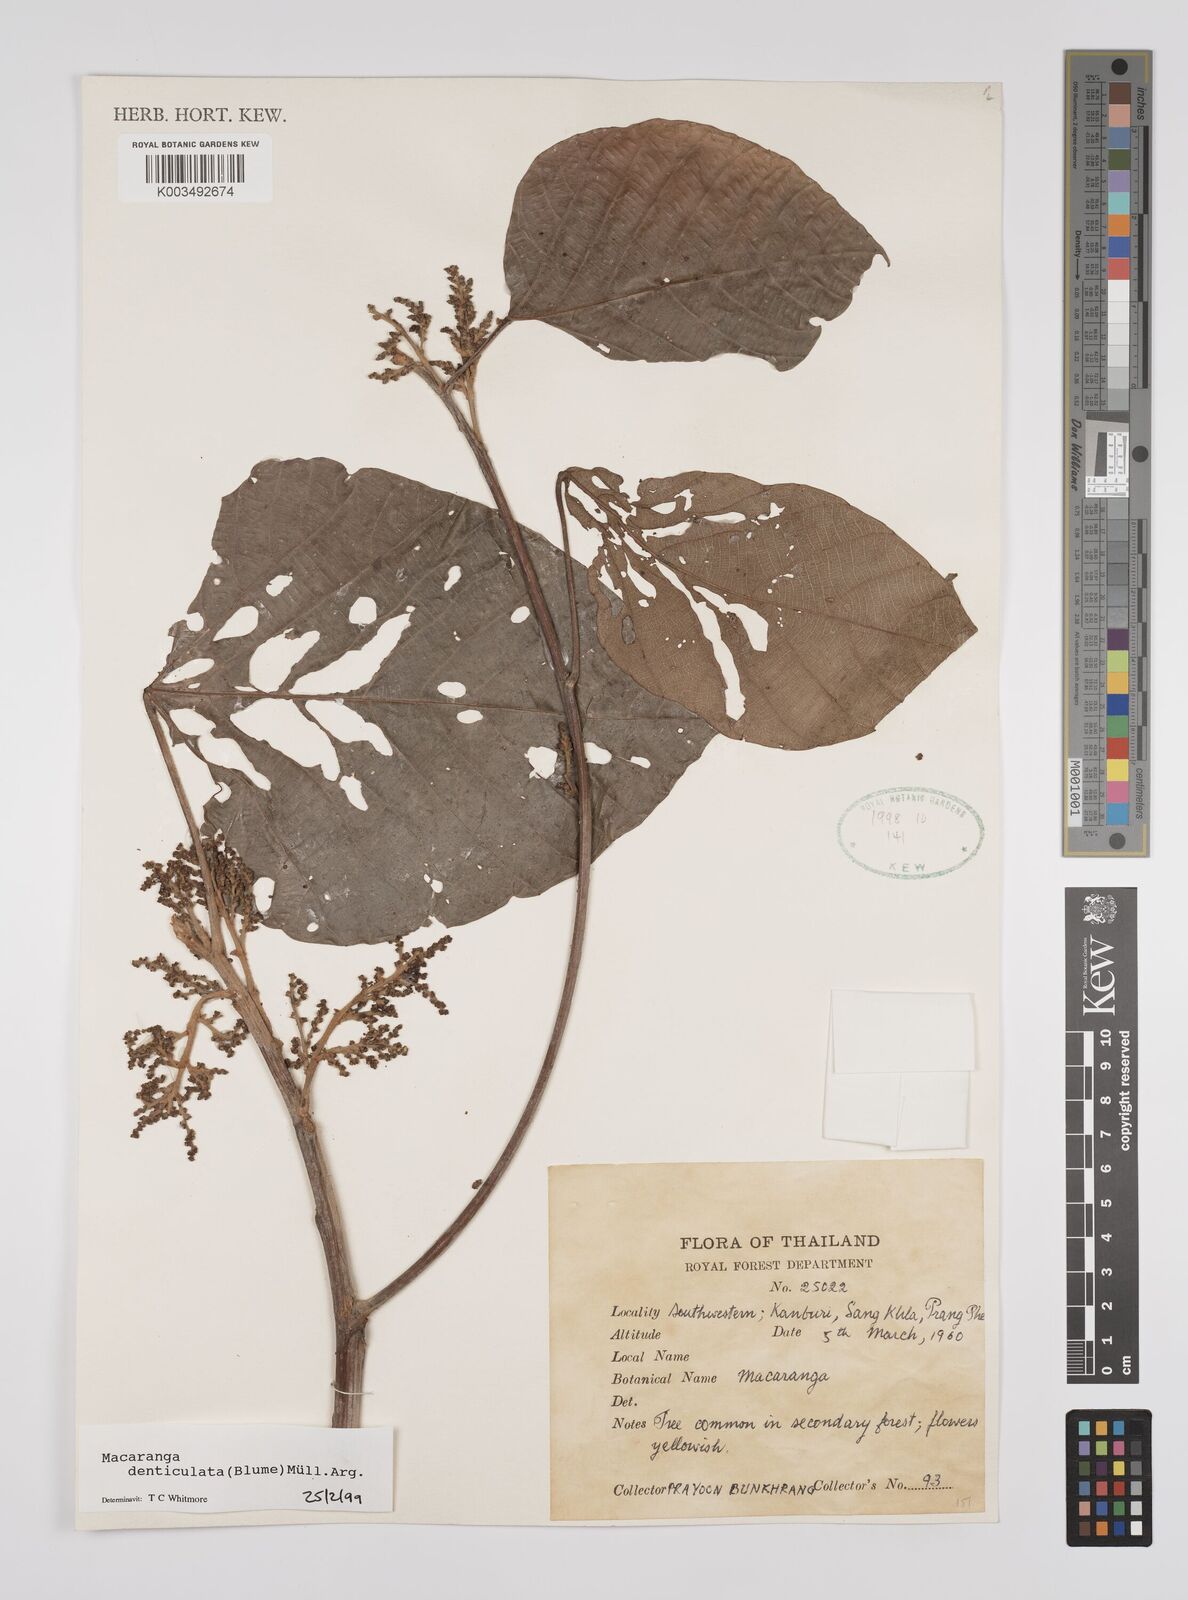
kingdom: Plantae
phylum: Tracheophyta
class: Magnoliopsida
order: Malpighiales
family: Euphorbiaceae
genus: Macaranga
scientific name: Macaranga denticulata
